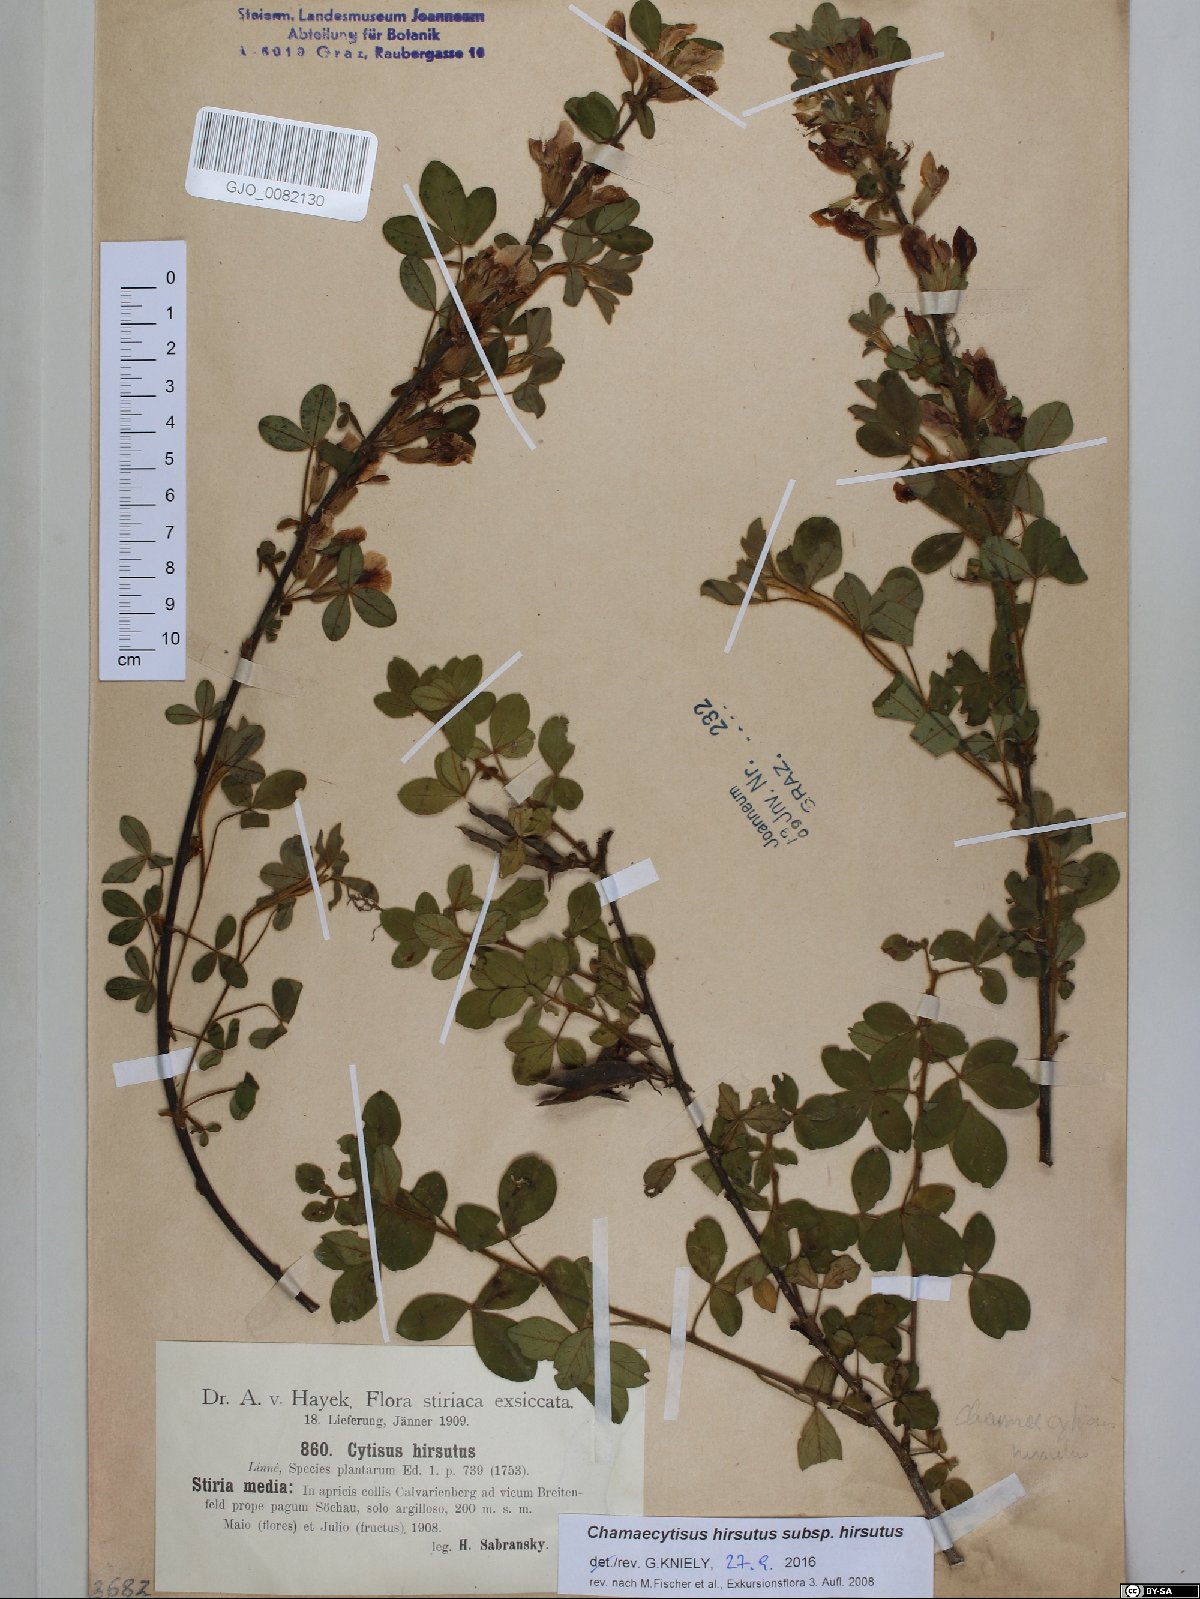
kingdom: Plantae
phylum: Tracheophyta
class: Magnoliopsida
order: Fabales
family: Fabaceae
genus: Chamaecytisus
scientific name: Chamaecytisus hirsutus
